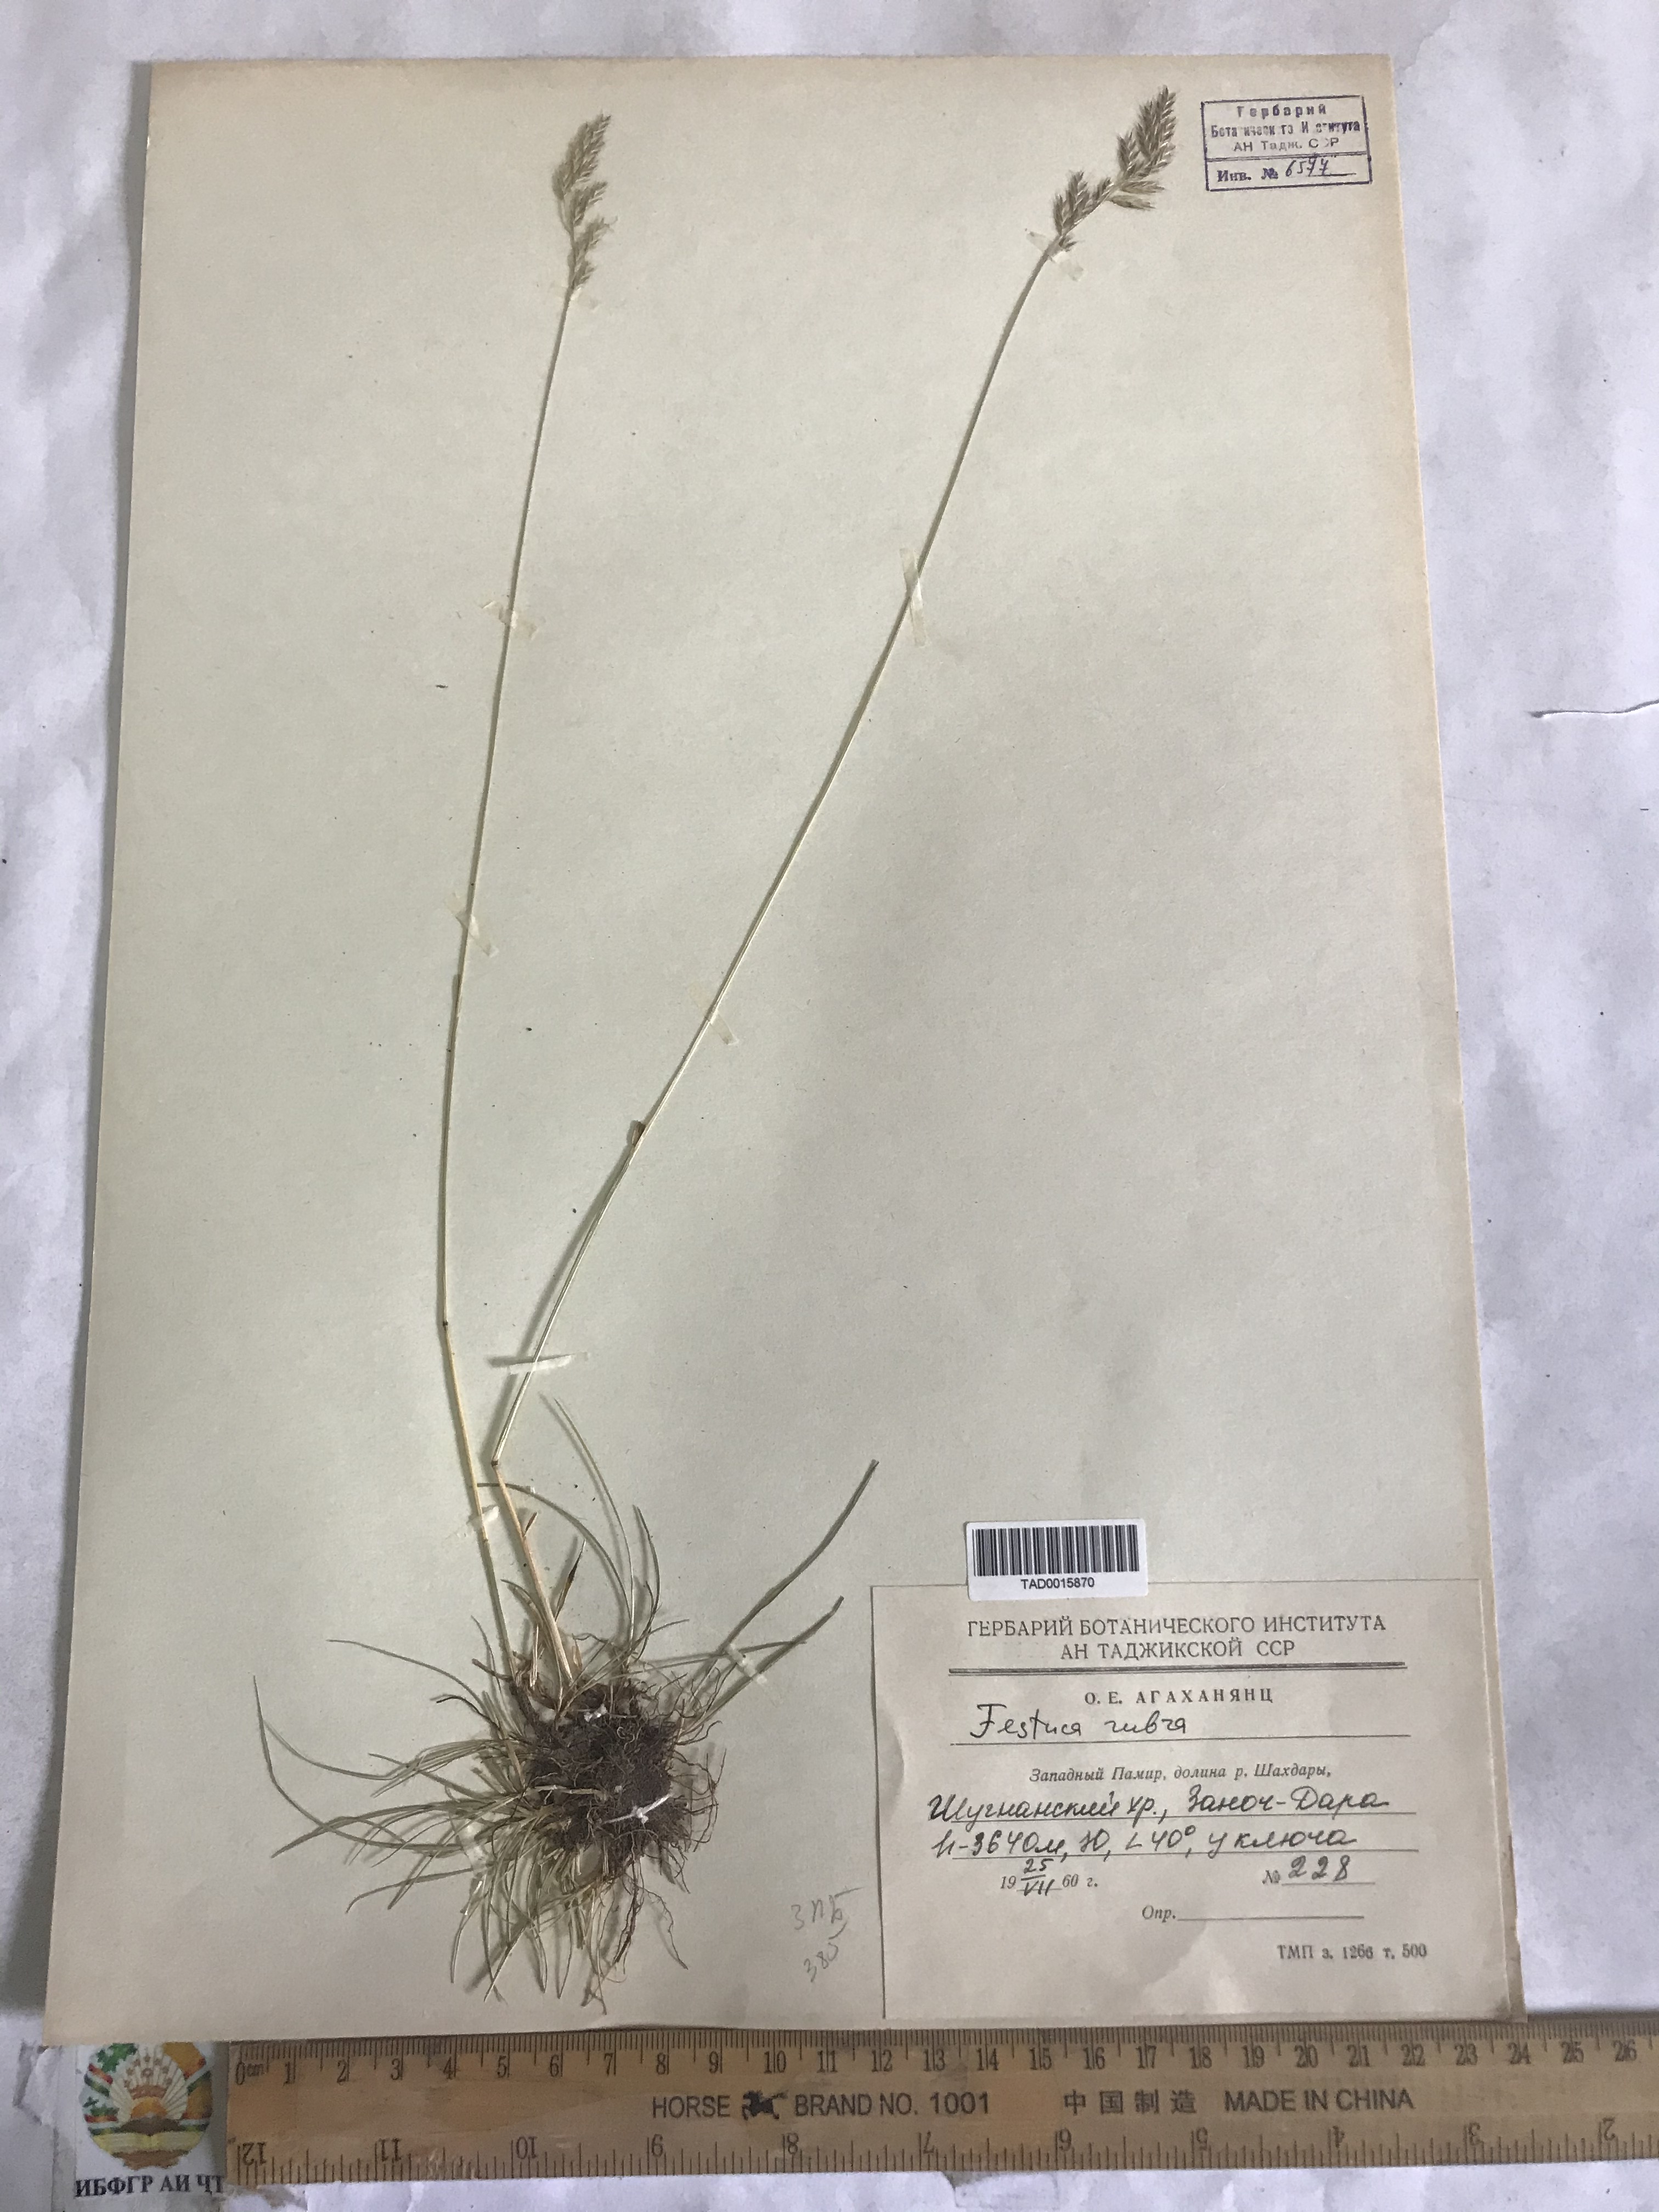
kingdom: Plantae
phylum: Tracheophyta
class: Liliopsida
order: Poales
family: Poaceae
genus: Festuca
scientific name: Festuca rubra
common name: Red fescue
